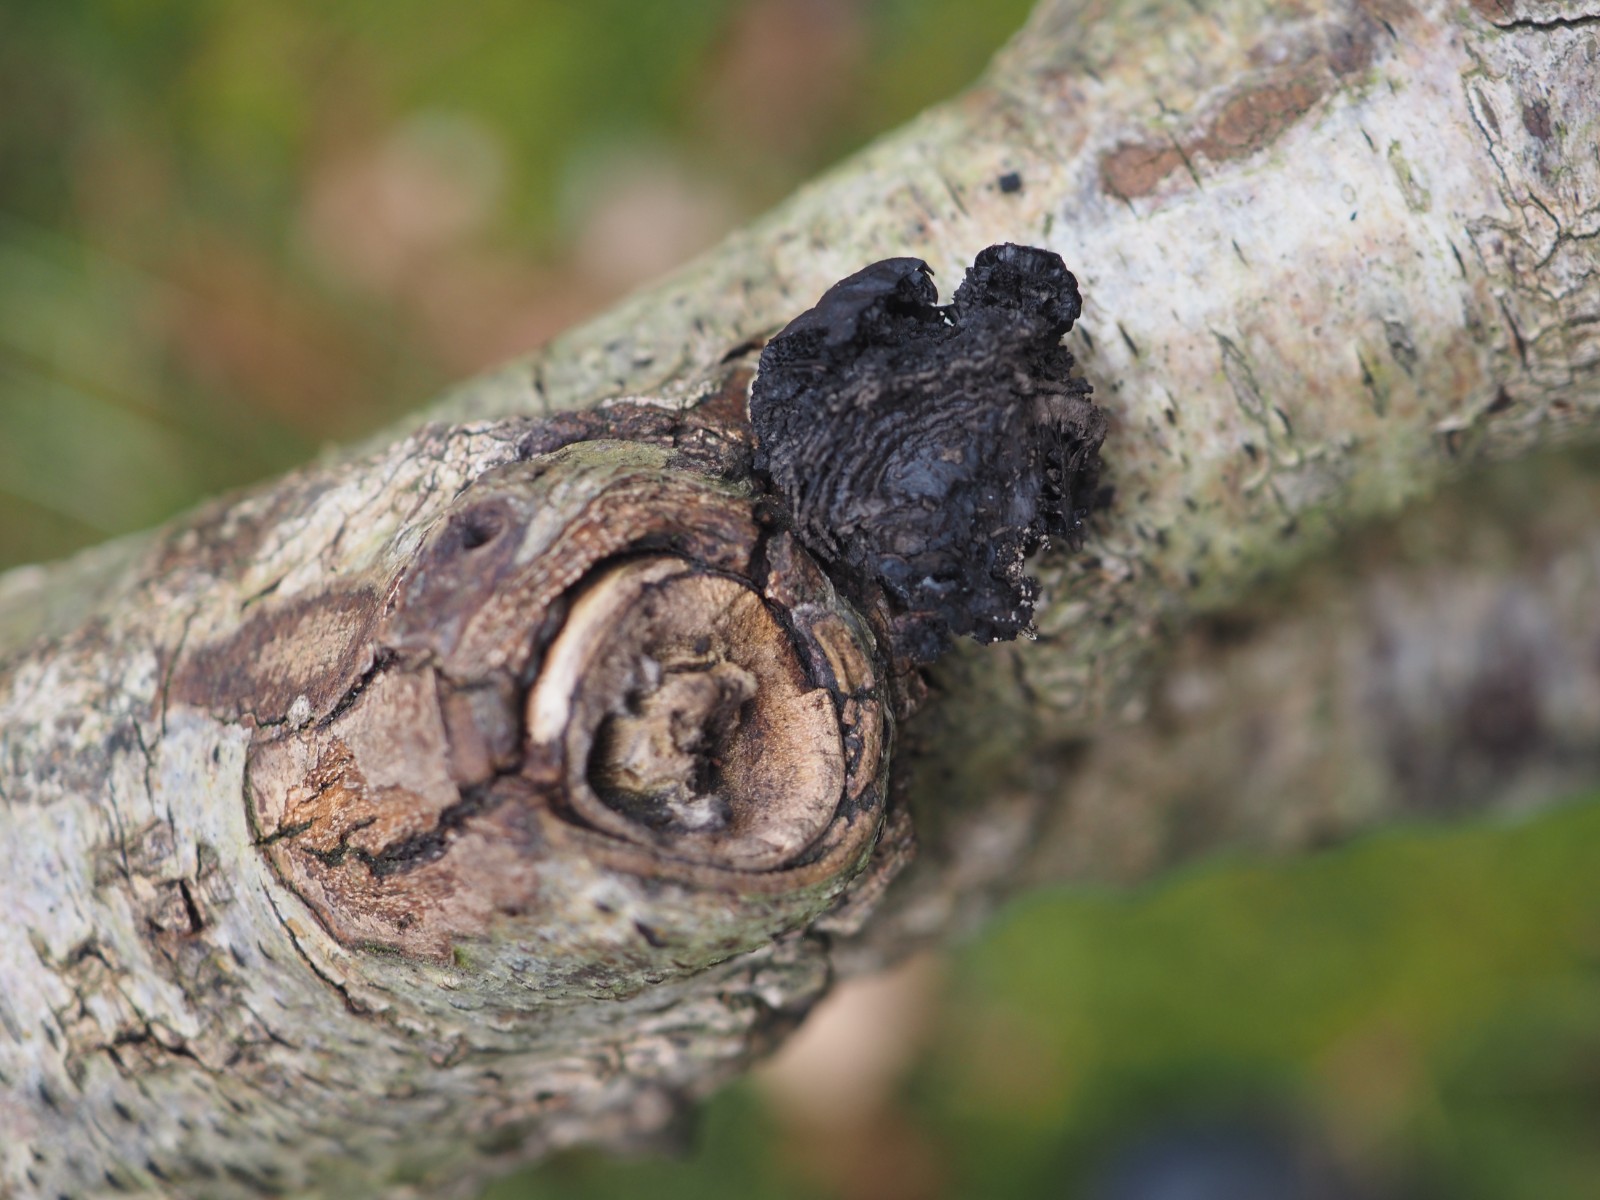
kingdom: Fungi
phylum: Ascomycota
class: Sordariomycetes
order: Xylariales
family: Hypoxylaceae
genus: Daldinia
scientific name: Daldinia decipiens
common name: stilket bæltekugle
